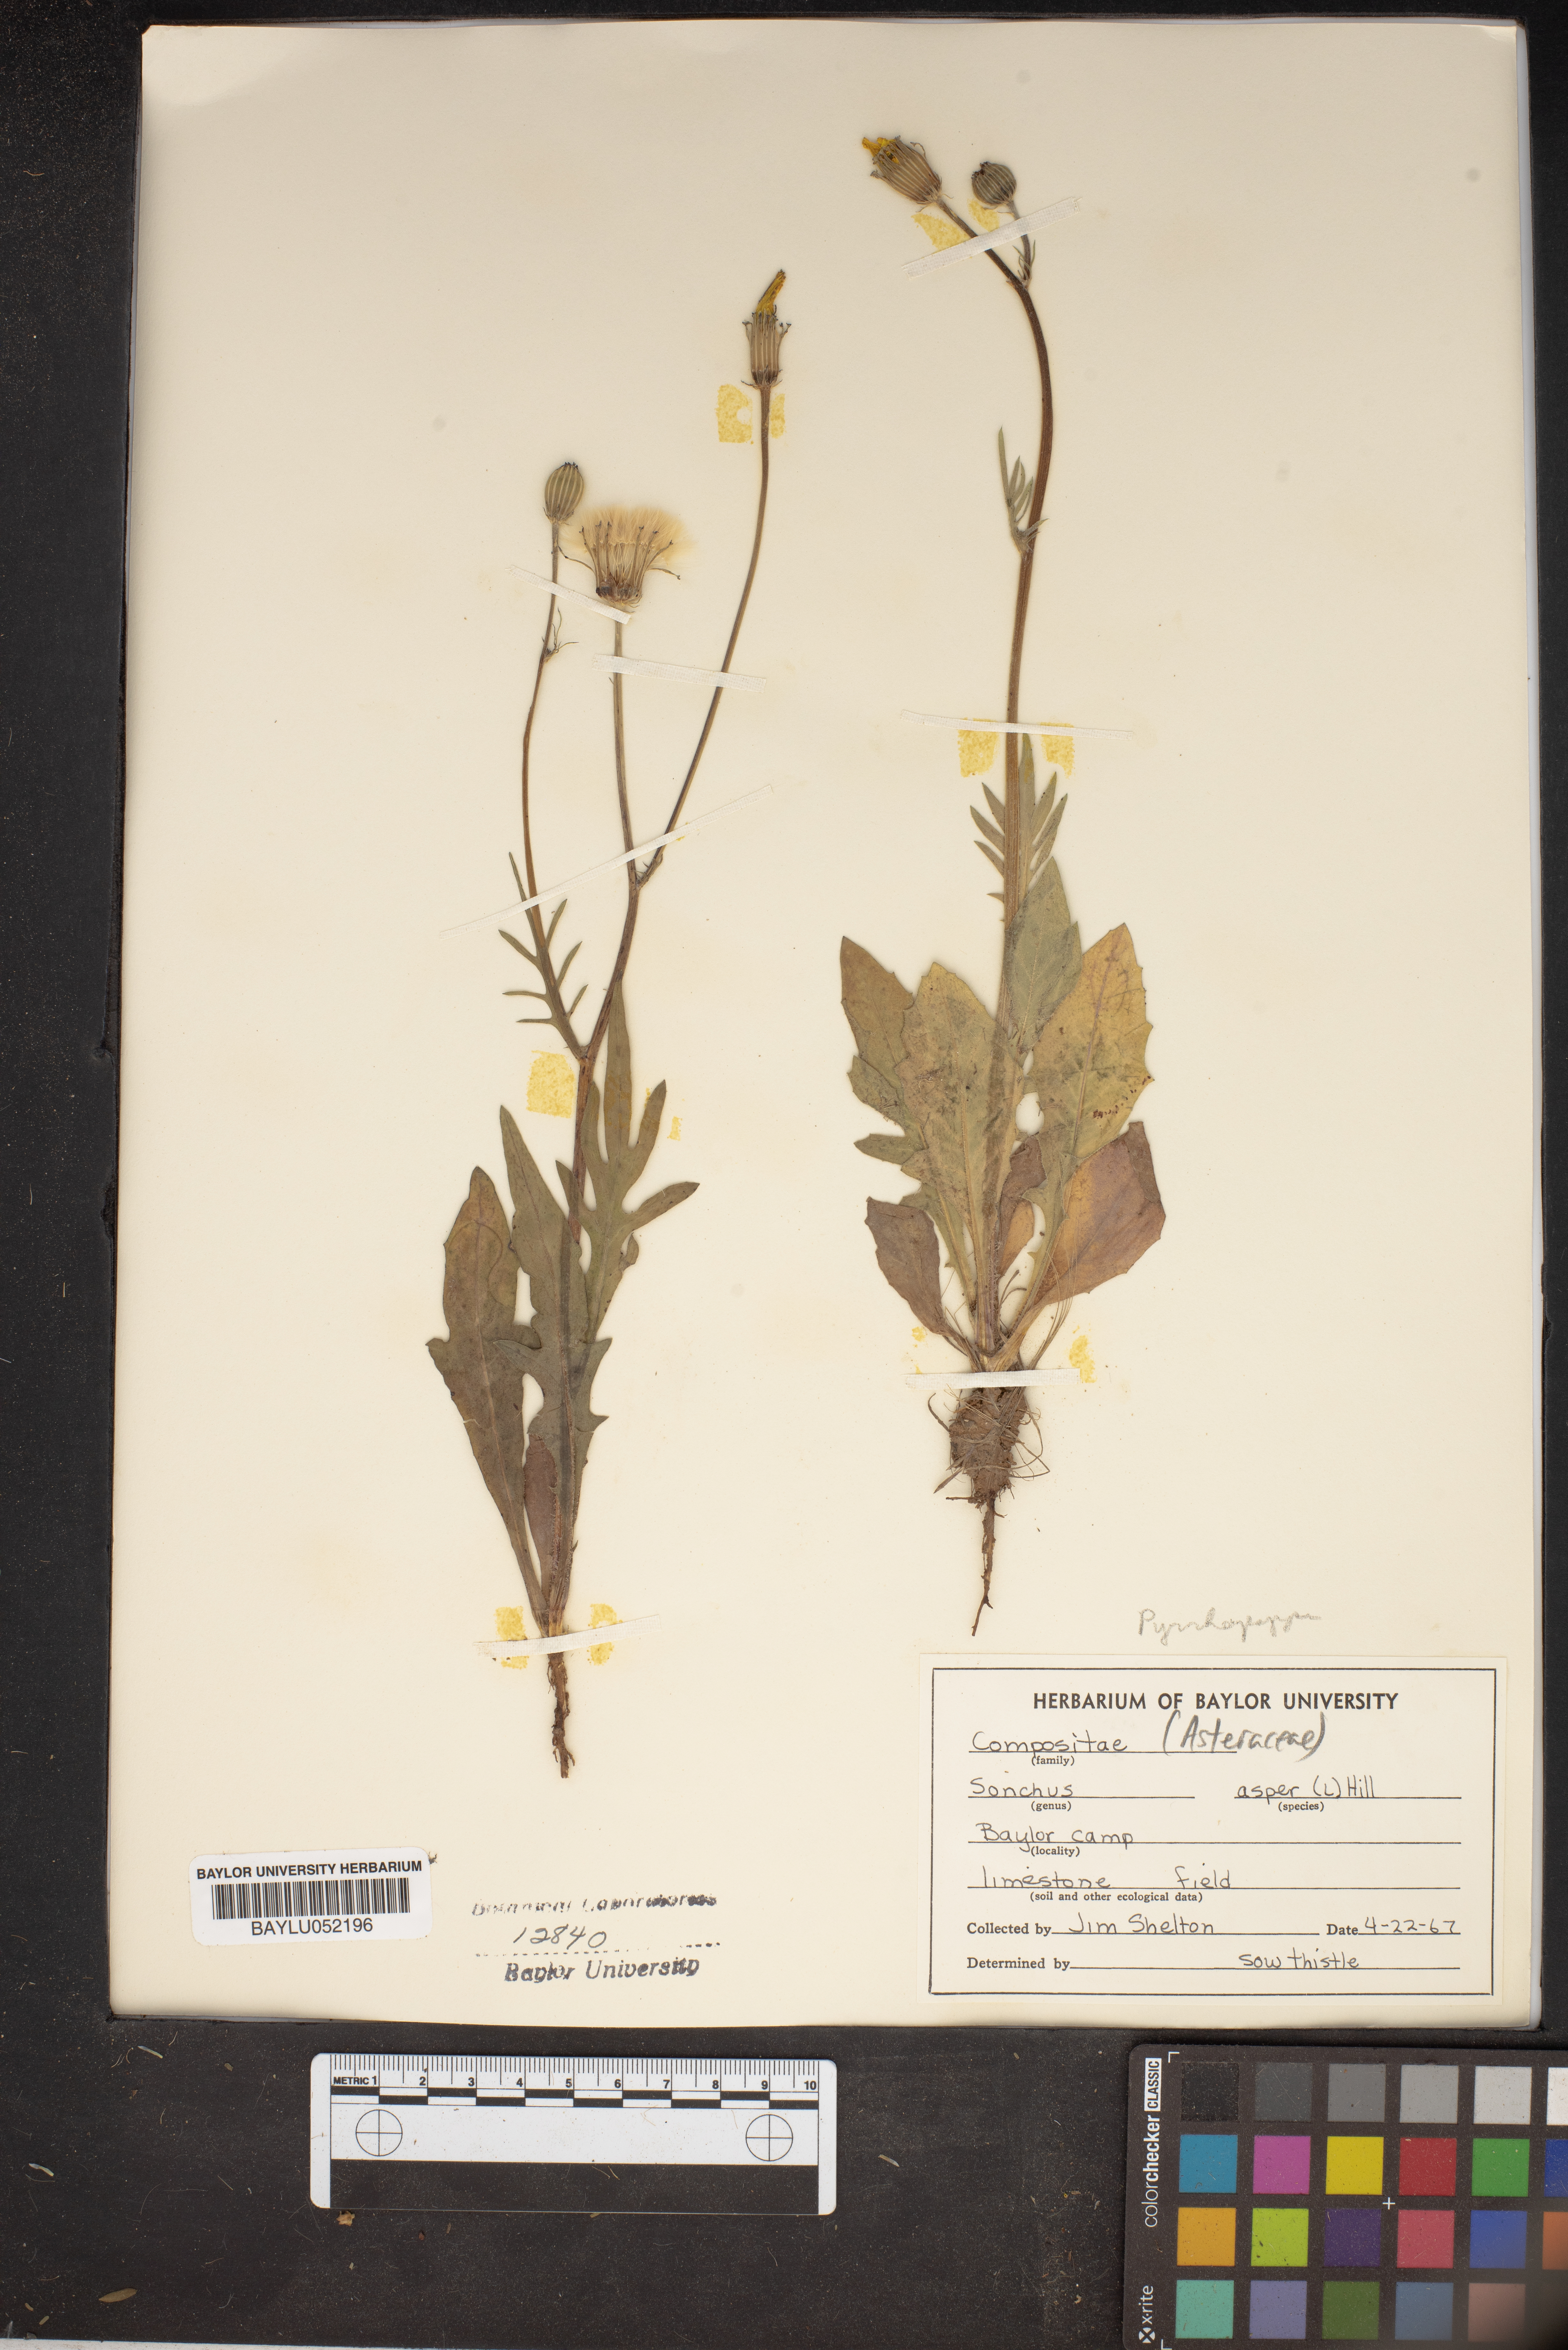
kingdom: Plantae
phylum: Tracheophyta
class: Magnoliopsida
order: Asterales
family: Asteraceae
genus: Sonchus
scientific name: Sonchus asper
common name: Prickly sow-thistle
